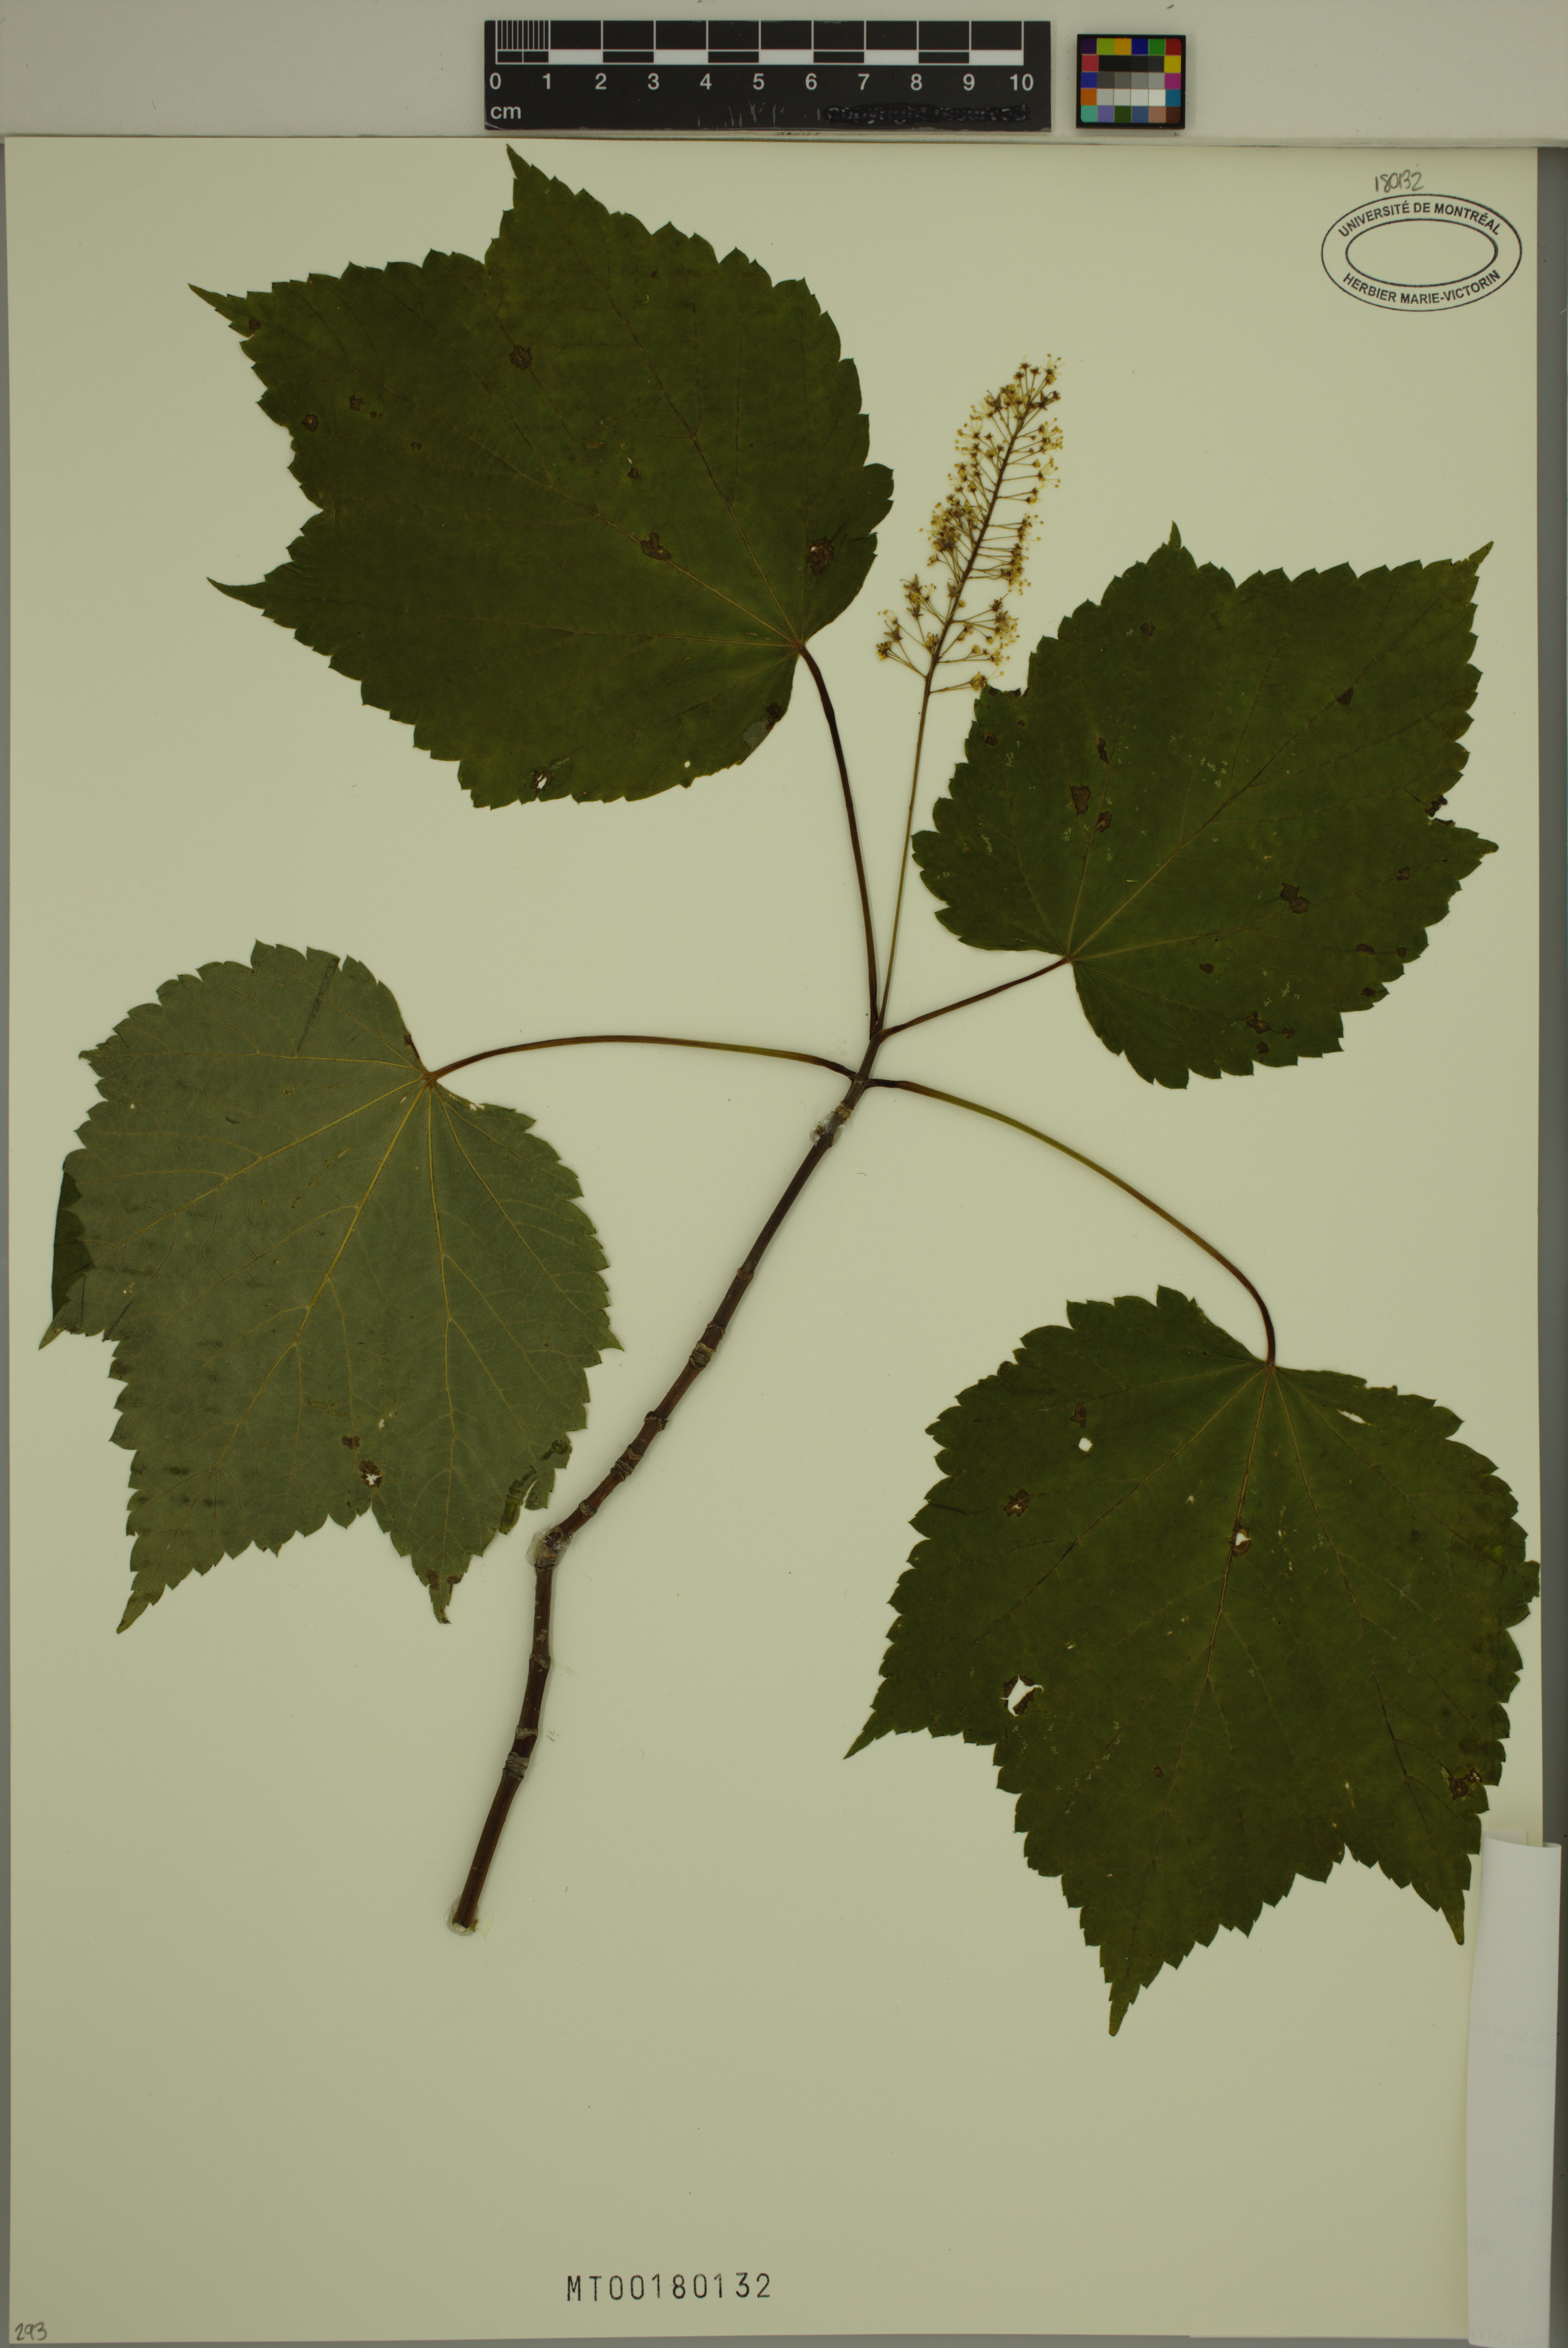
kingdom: Plantae
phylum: Tracheophyta
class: Magnoliopsida
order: Sapindales
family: Sapindaceae
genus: Acer
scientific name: Acer spicatum
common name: Mountain maple
